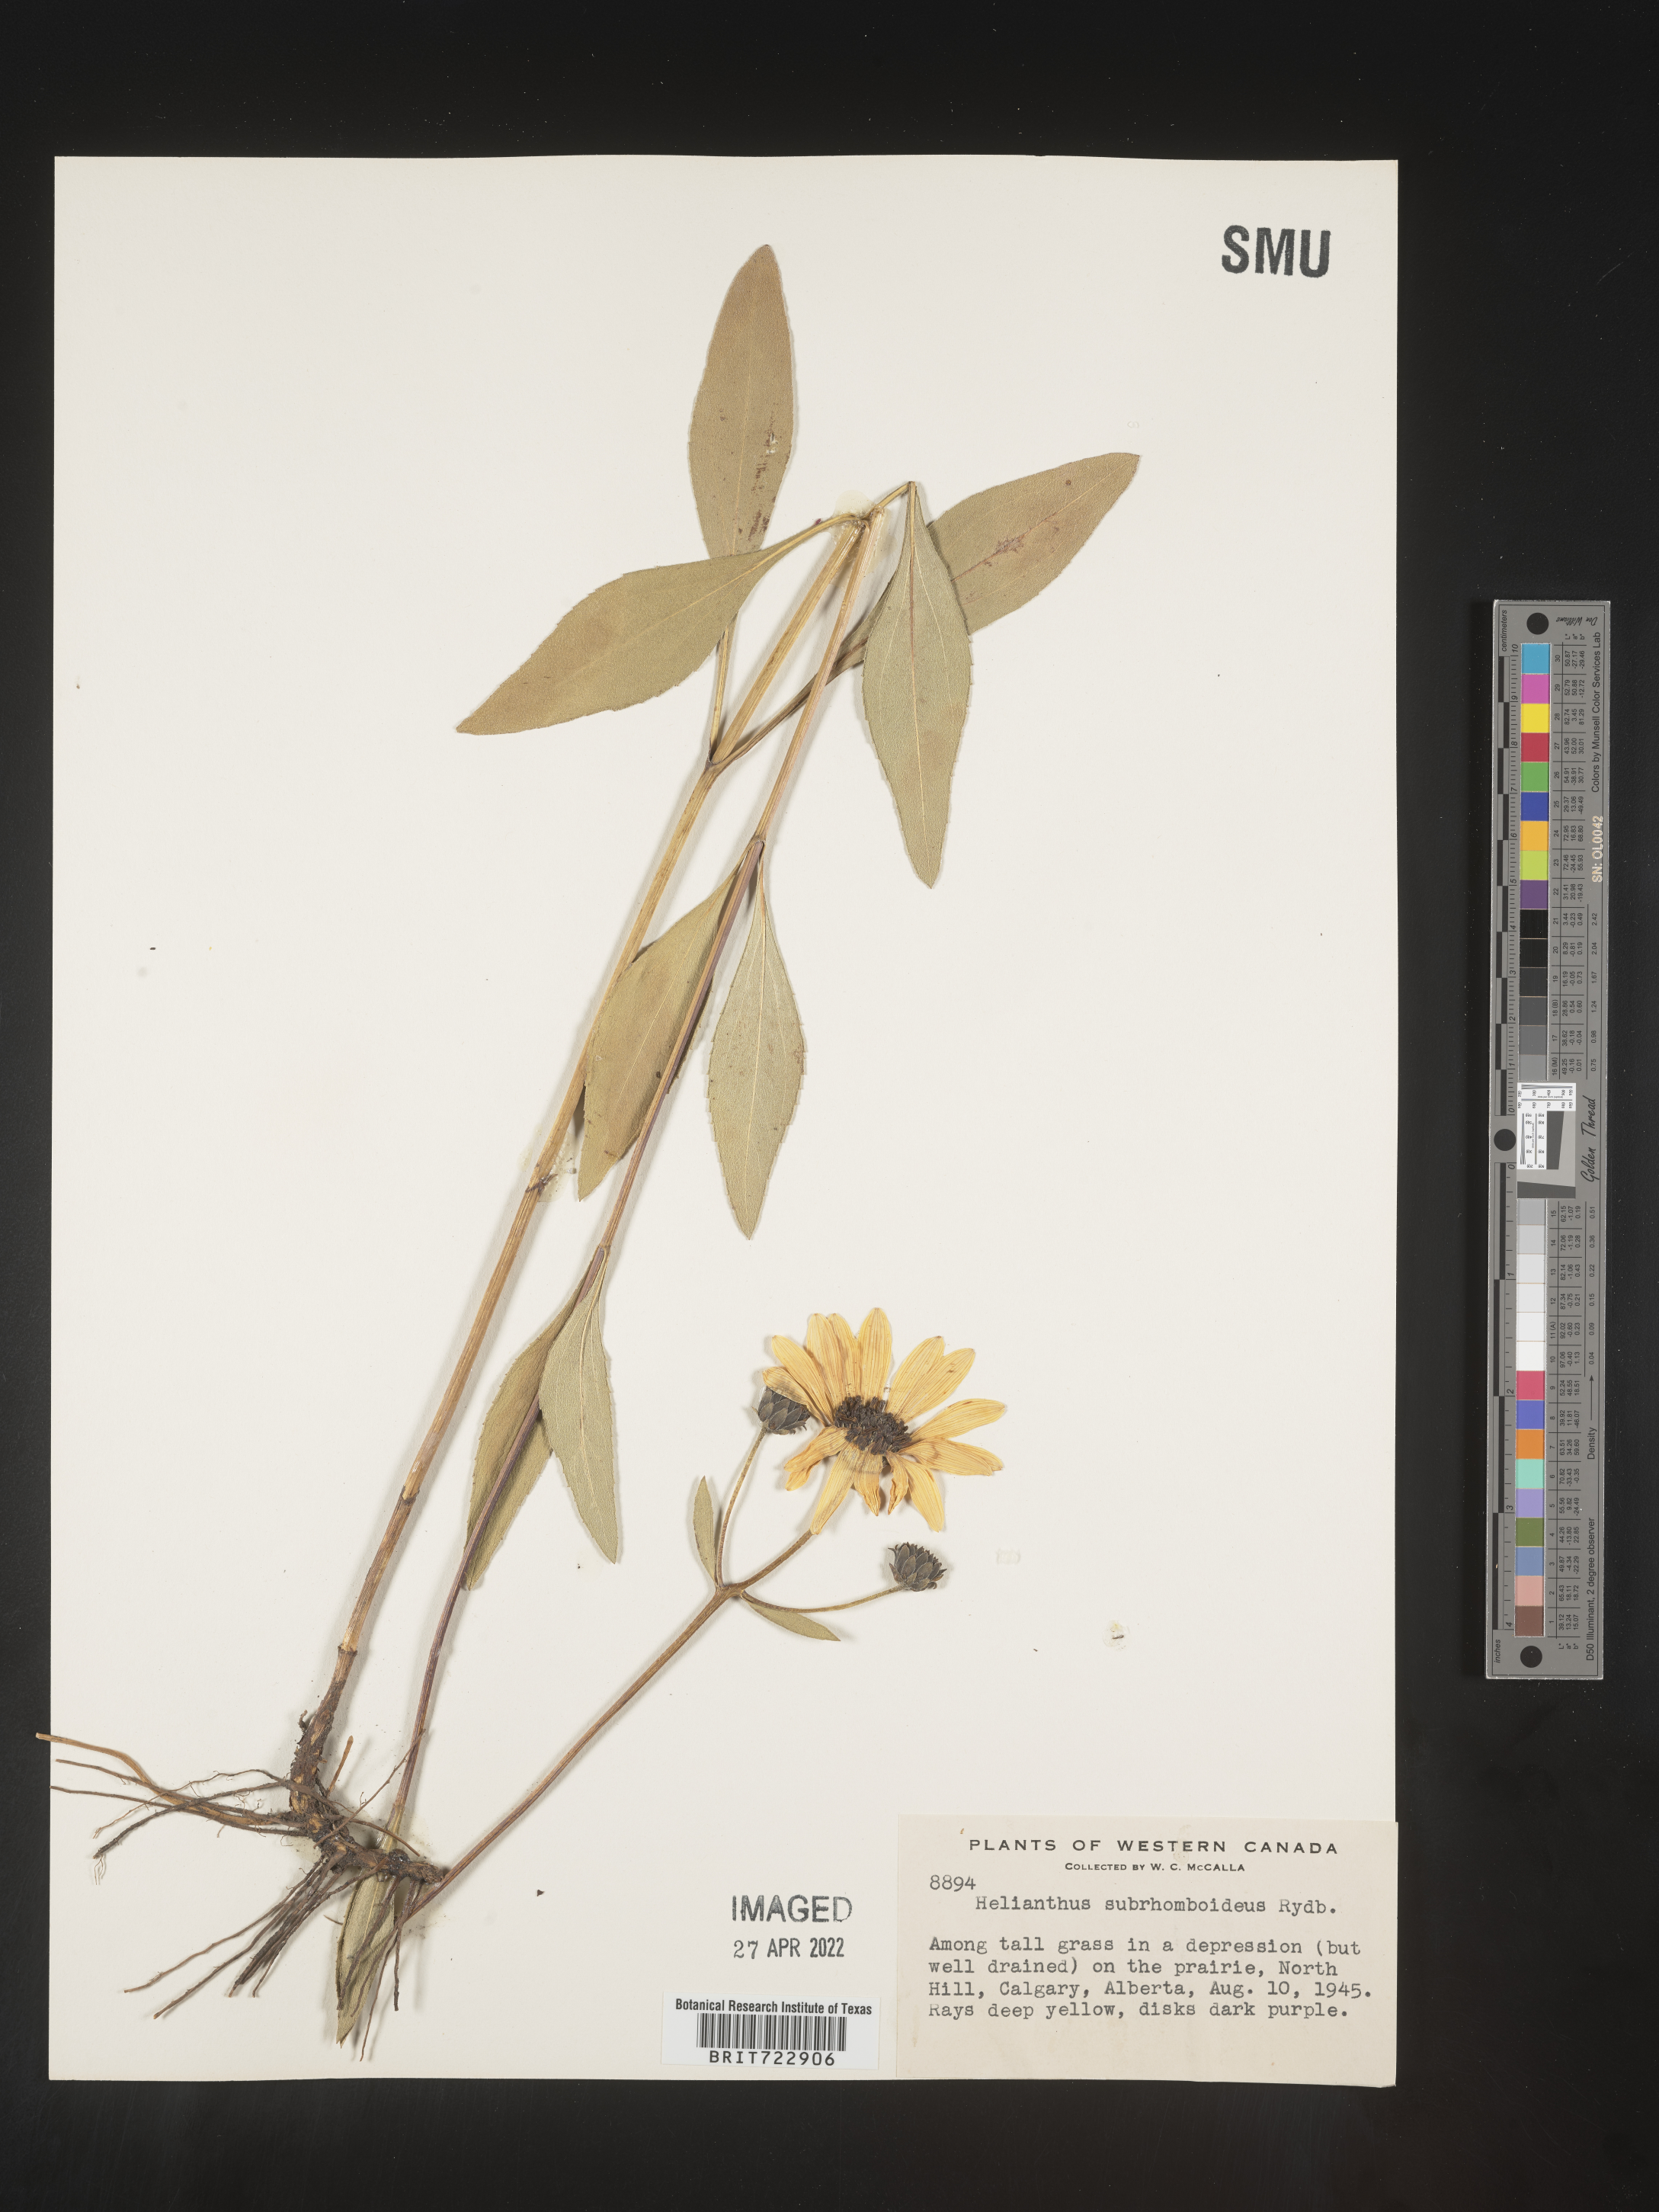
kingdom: Plantae
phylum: Tracheophyta
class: Magnoliopsida
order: Asterales
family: Asteraceae
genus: Helianthus
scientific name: Helianthus
